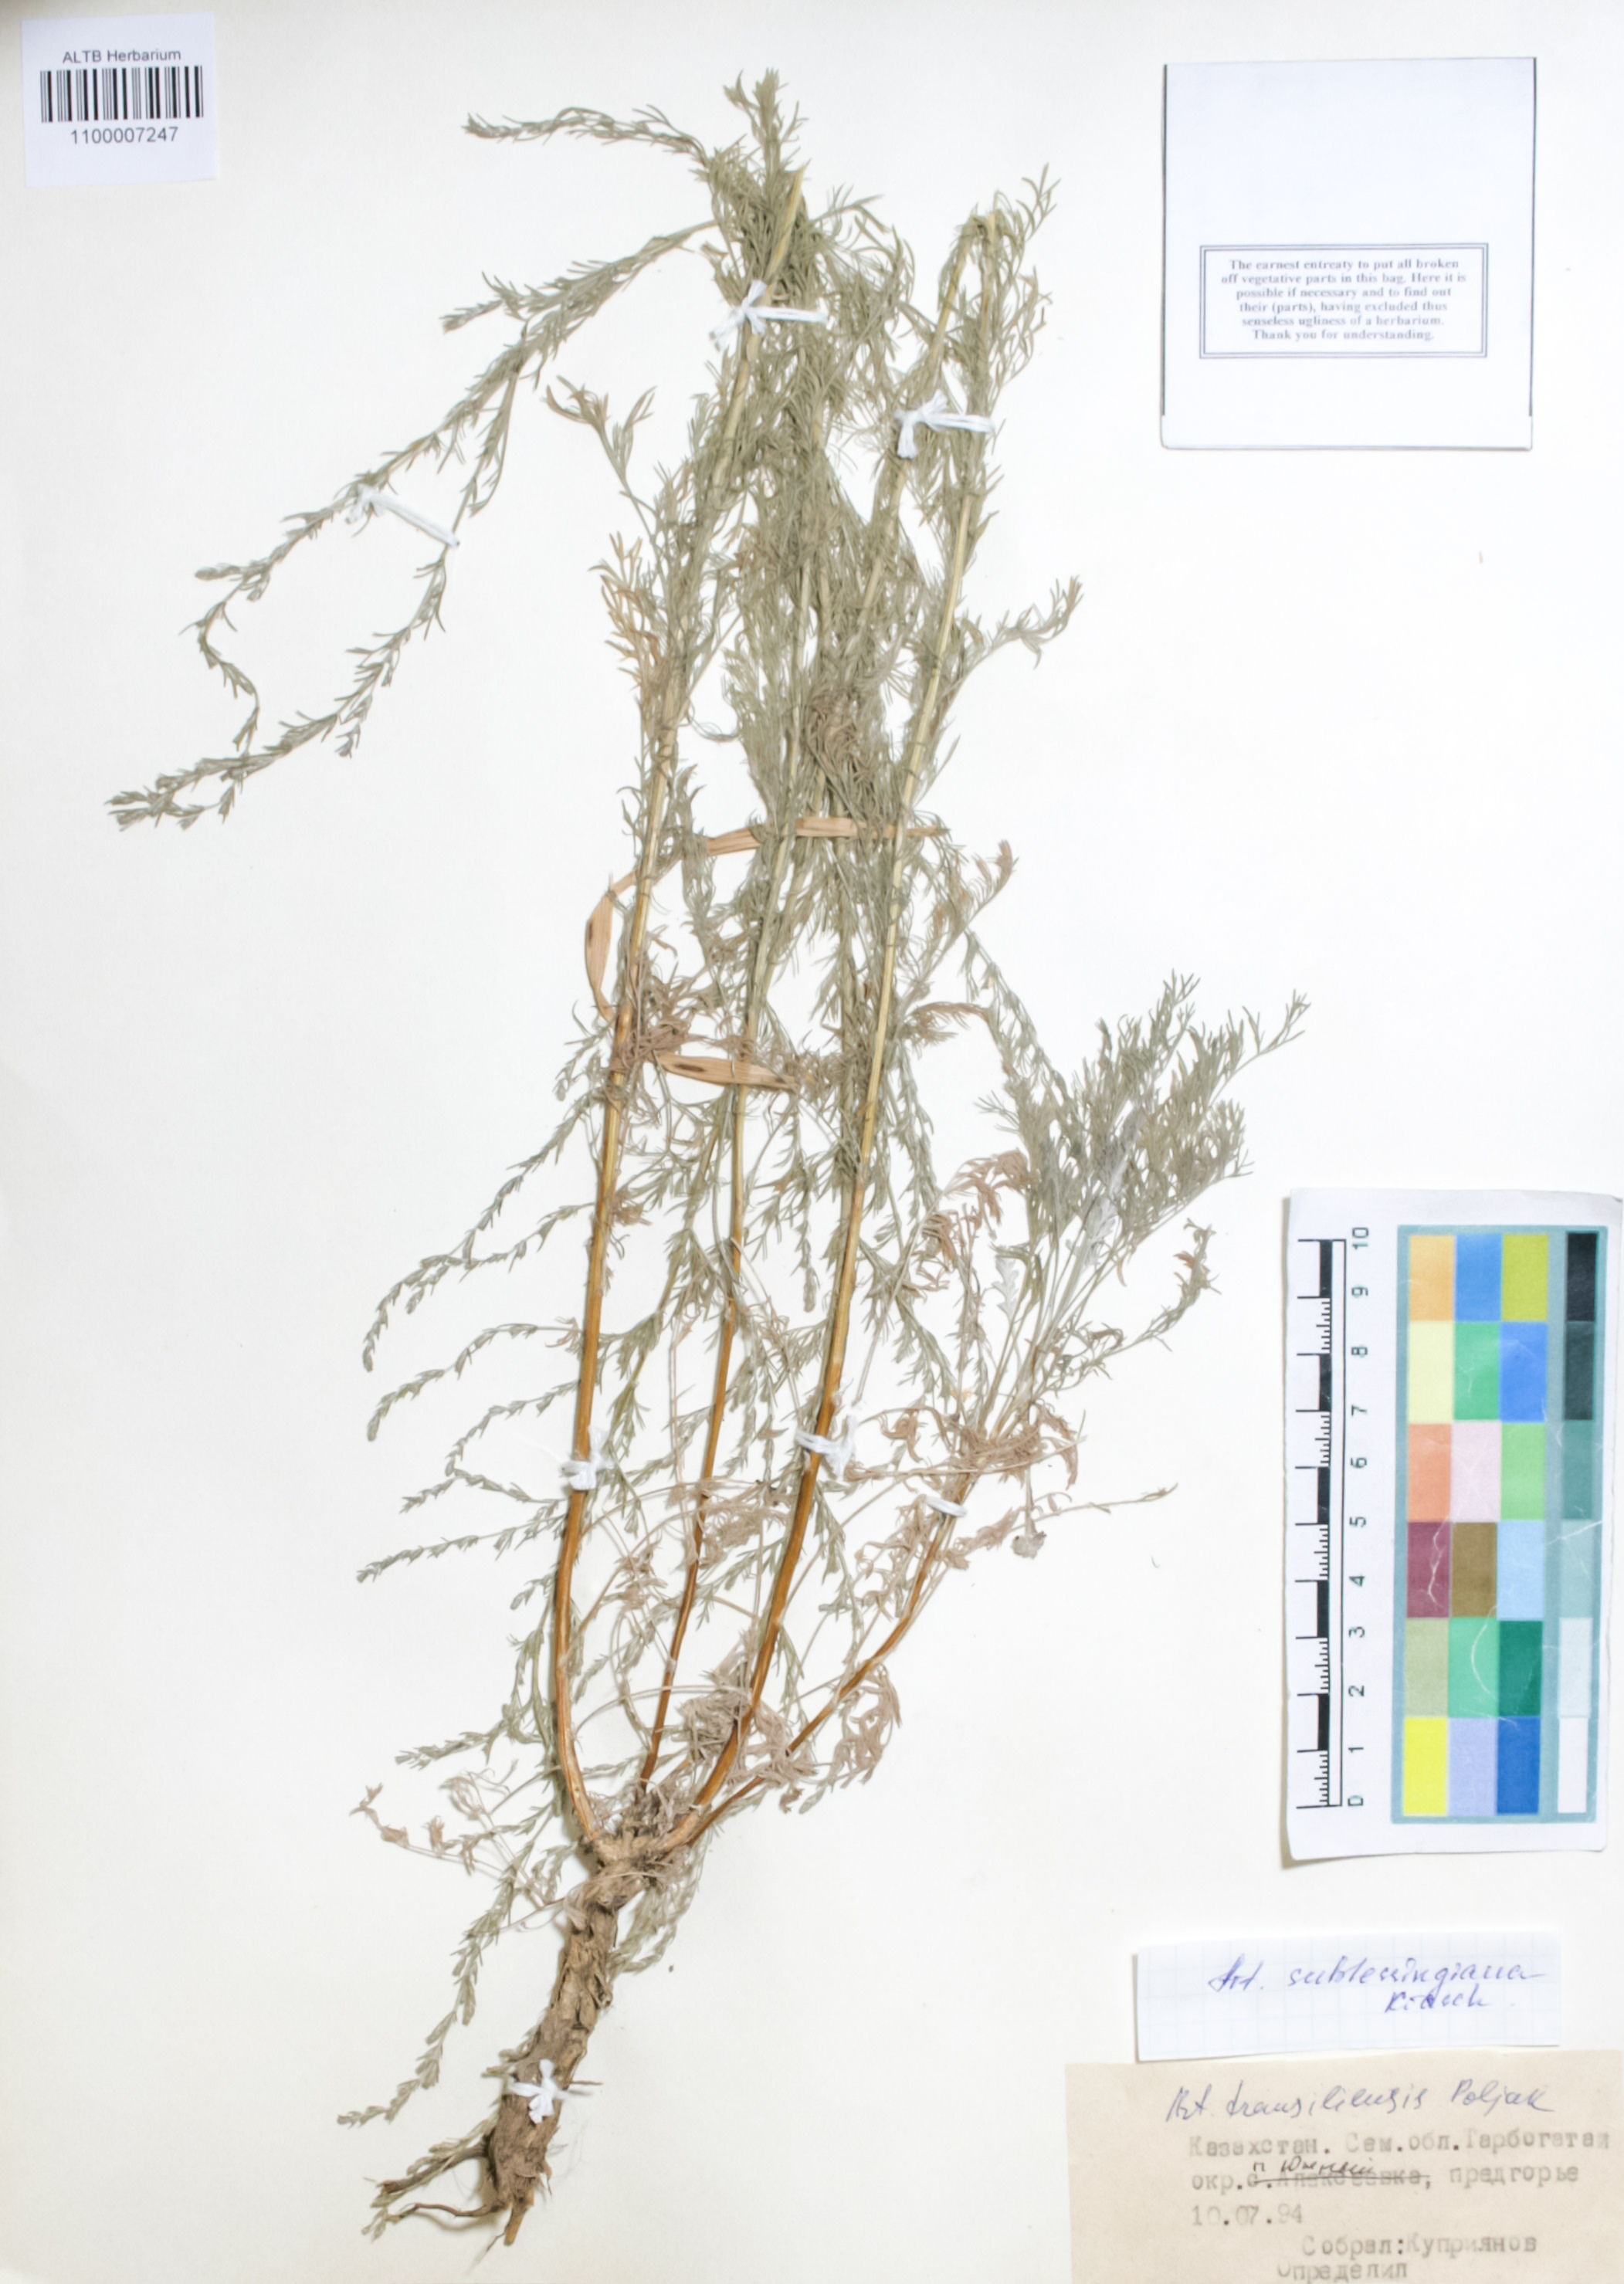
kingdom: Plantae
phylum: Tracheophyta
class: Magnoliopsida
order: Asterales
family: Asteraceae
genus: Artemisia
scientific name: Artemisia sublessingiana
